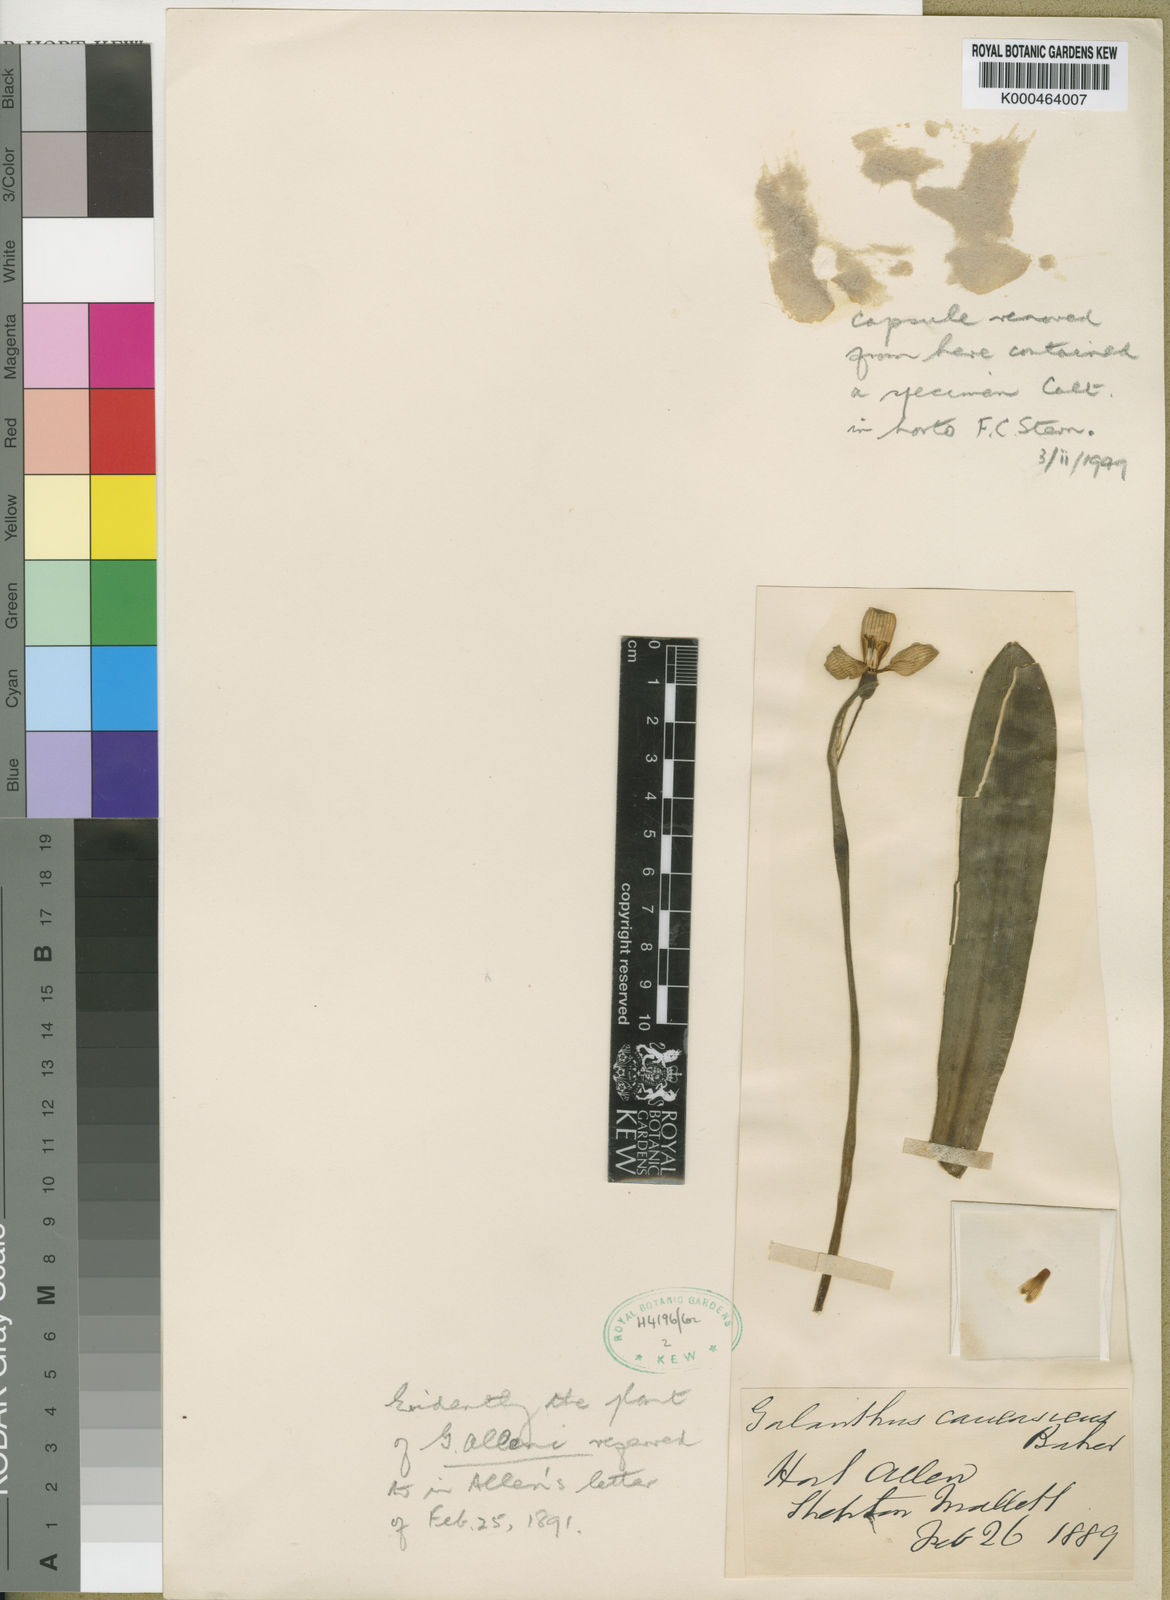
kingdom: Plantae
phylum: Tracheophyta
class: Liliopsida
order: Asparagales
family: Amaryllidaceae
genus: Galanthus
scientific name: Galanthus allenii
